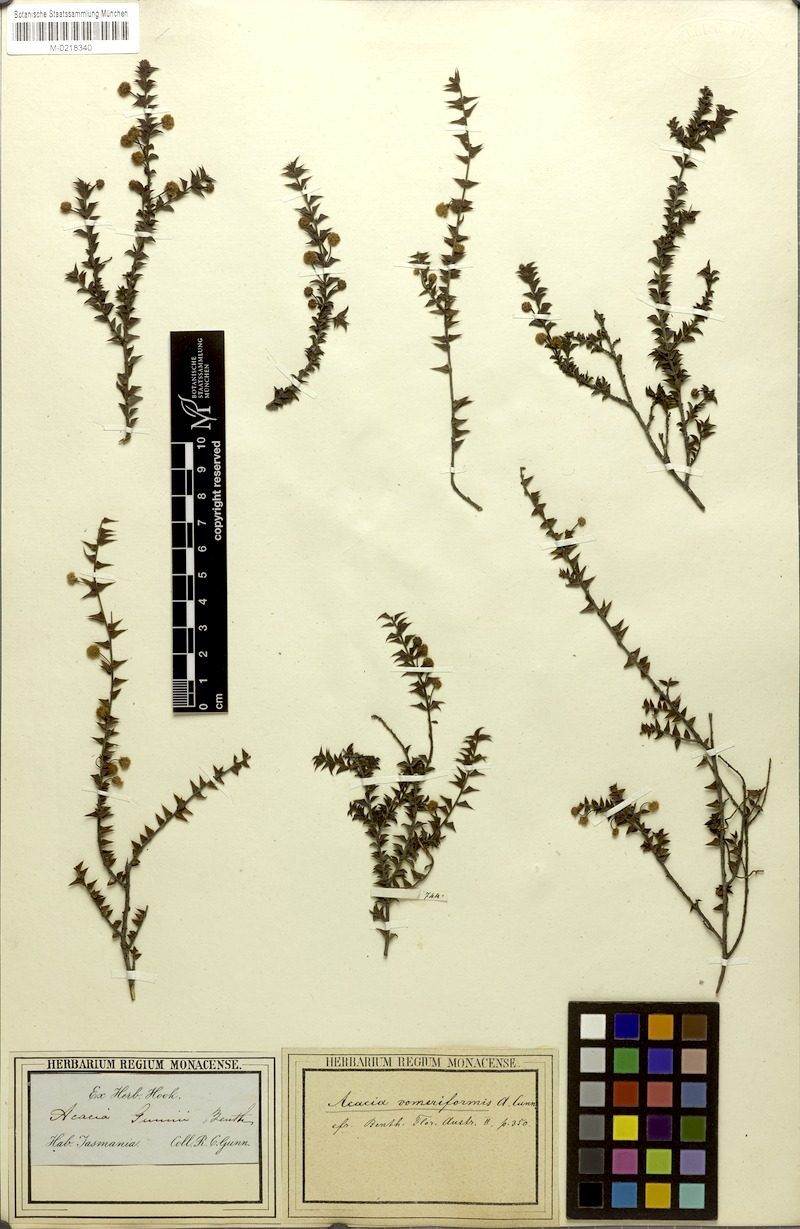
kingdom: Plantae
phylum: Tracheophyta
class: Magnoliopsida
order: Fabales
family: Fabaceae
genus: Acacia
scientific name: Acacia gunnii
